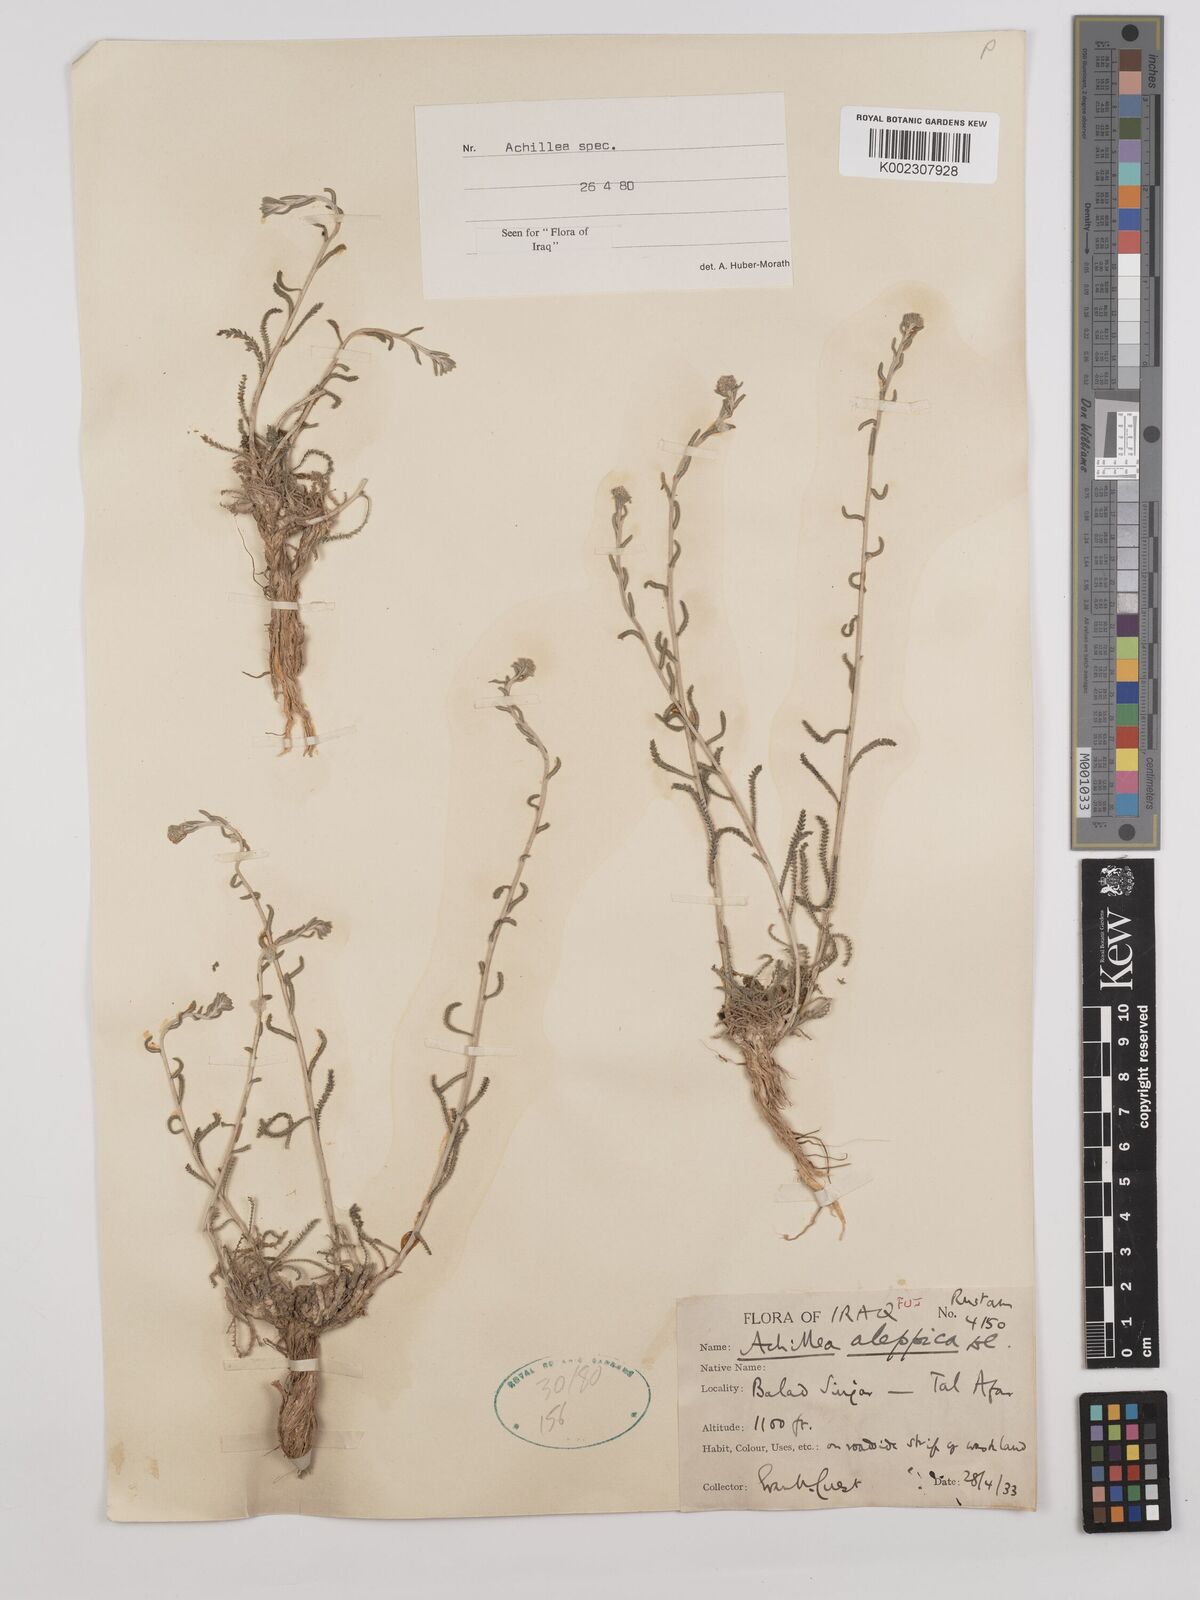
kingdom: Plantae
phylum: Tracheophyta
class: Magnoliopsida
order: Asterales
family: Asteraceae
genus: Achillea
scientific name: Achillea wilhelmsii
